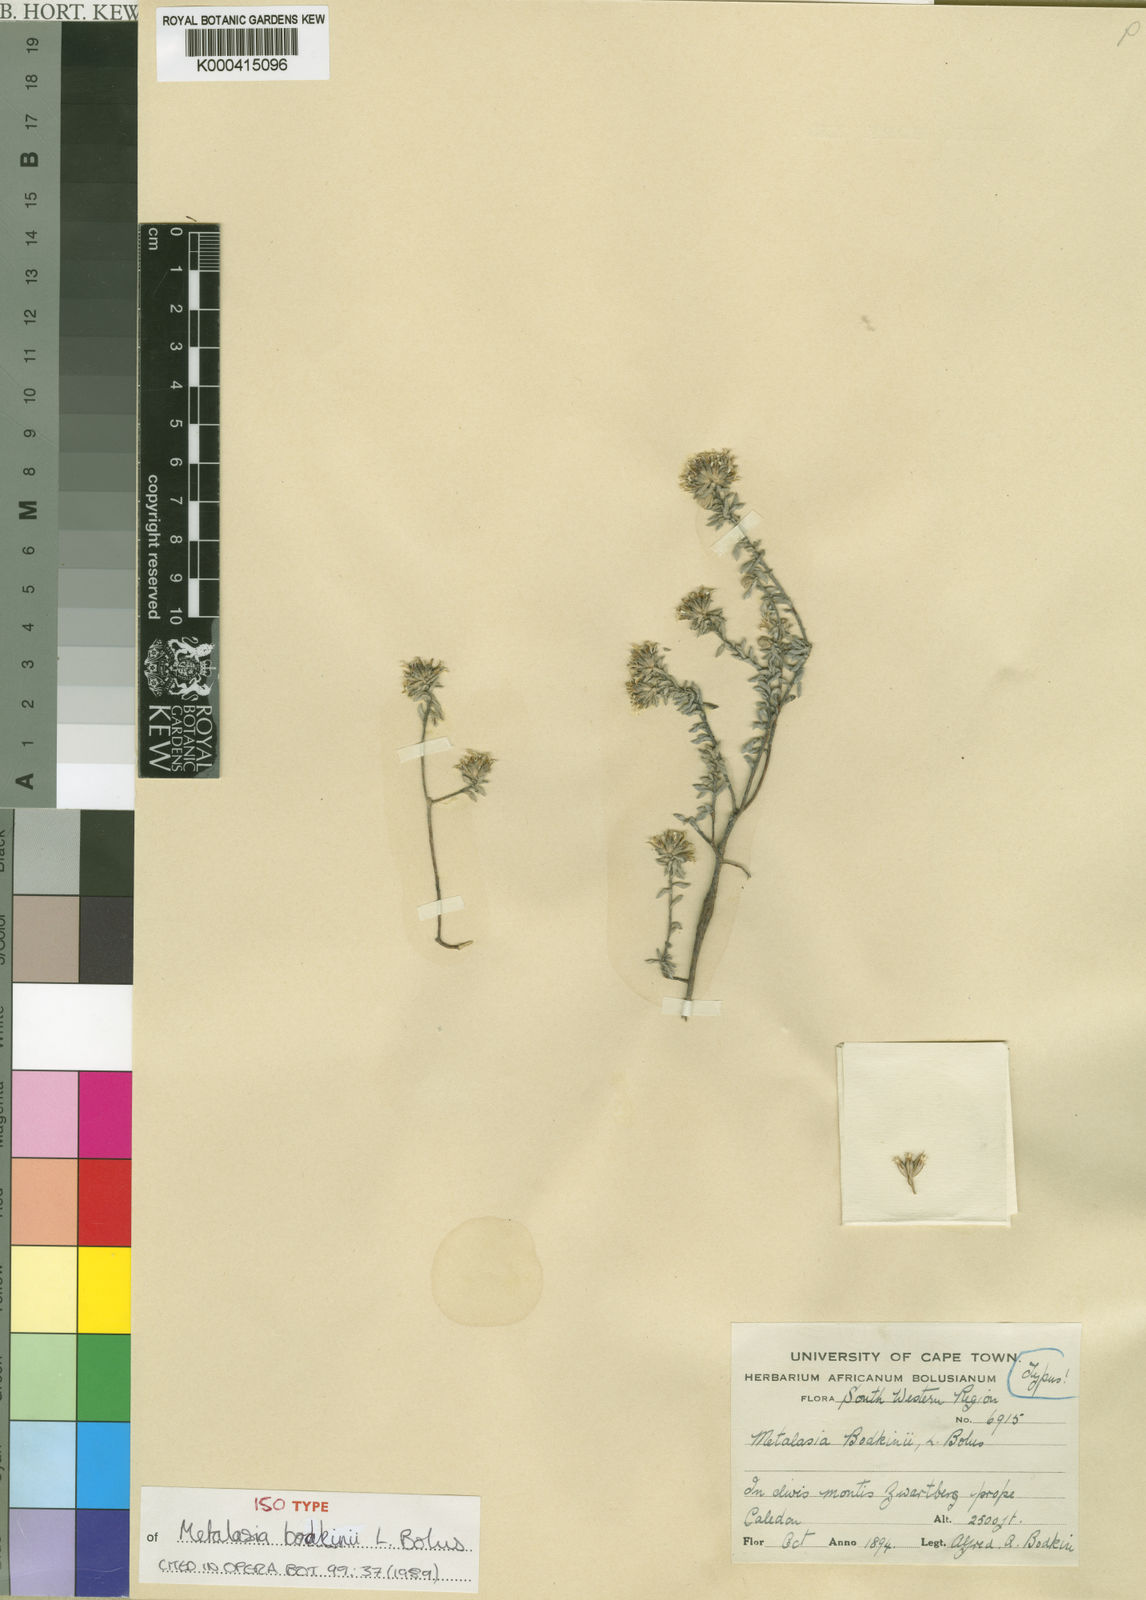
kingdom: Plantae
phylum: Tracheophyta
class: Magnoliopsida
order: Asterales
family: Asteraceae
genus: Metalasia
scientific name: Metalasia bodkinii
